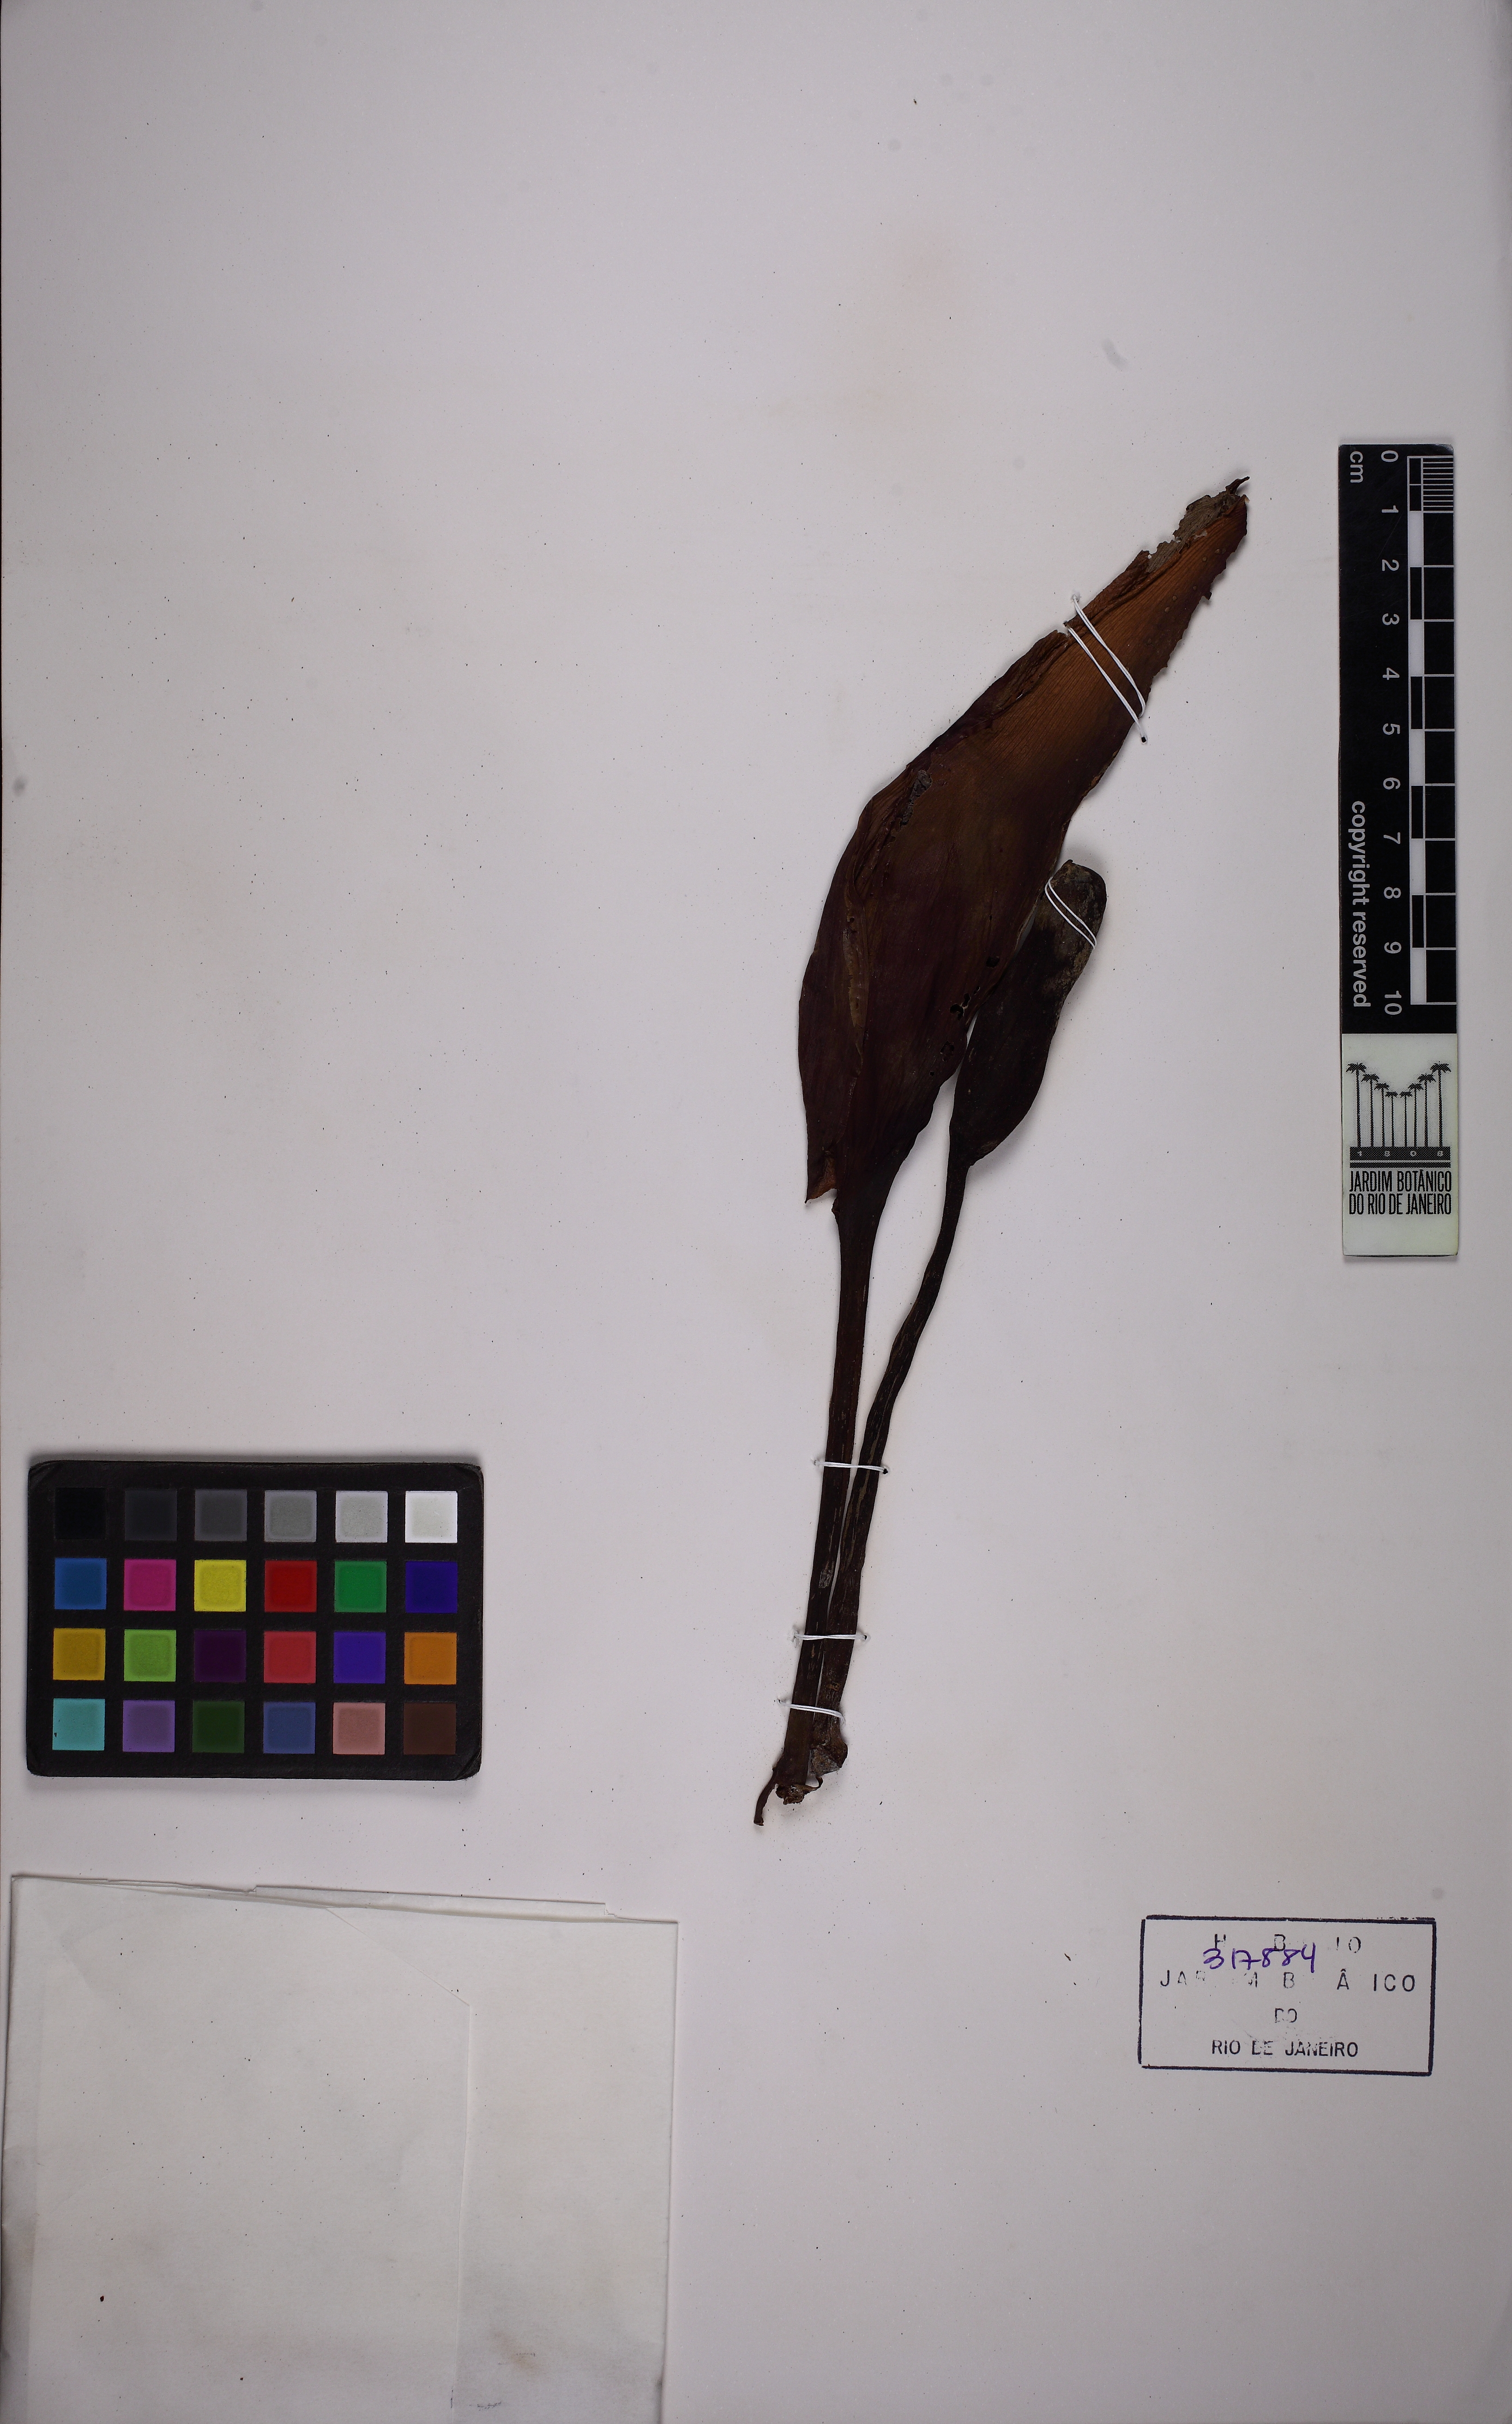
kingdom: Plantae
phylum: Tracheophyta
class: Liliopsida
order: Alismatales
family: Araceae
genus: Philodendron
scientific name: Philodendron
